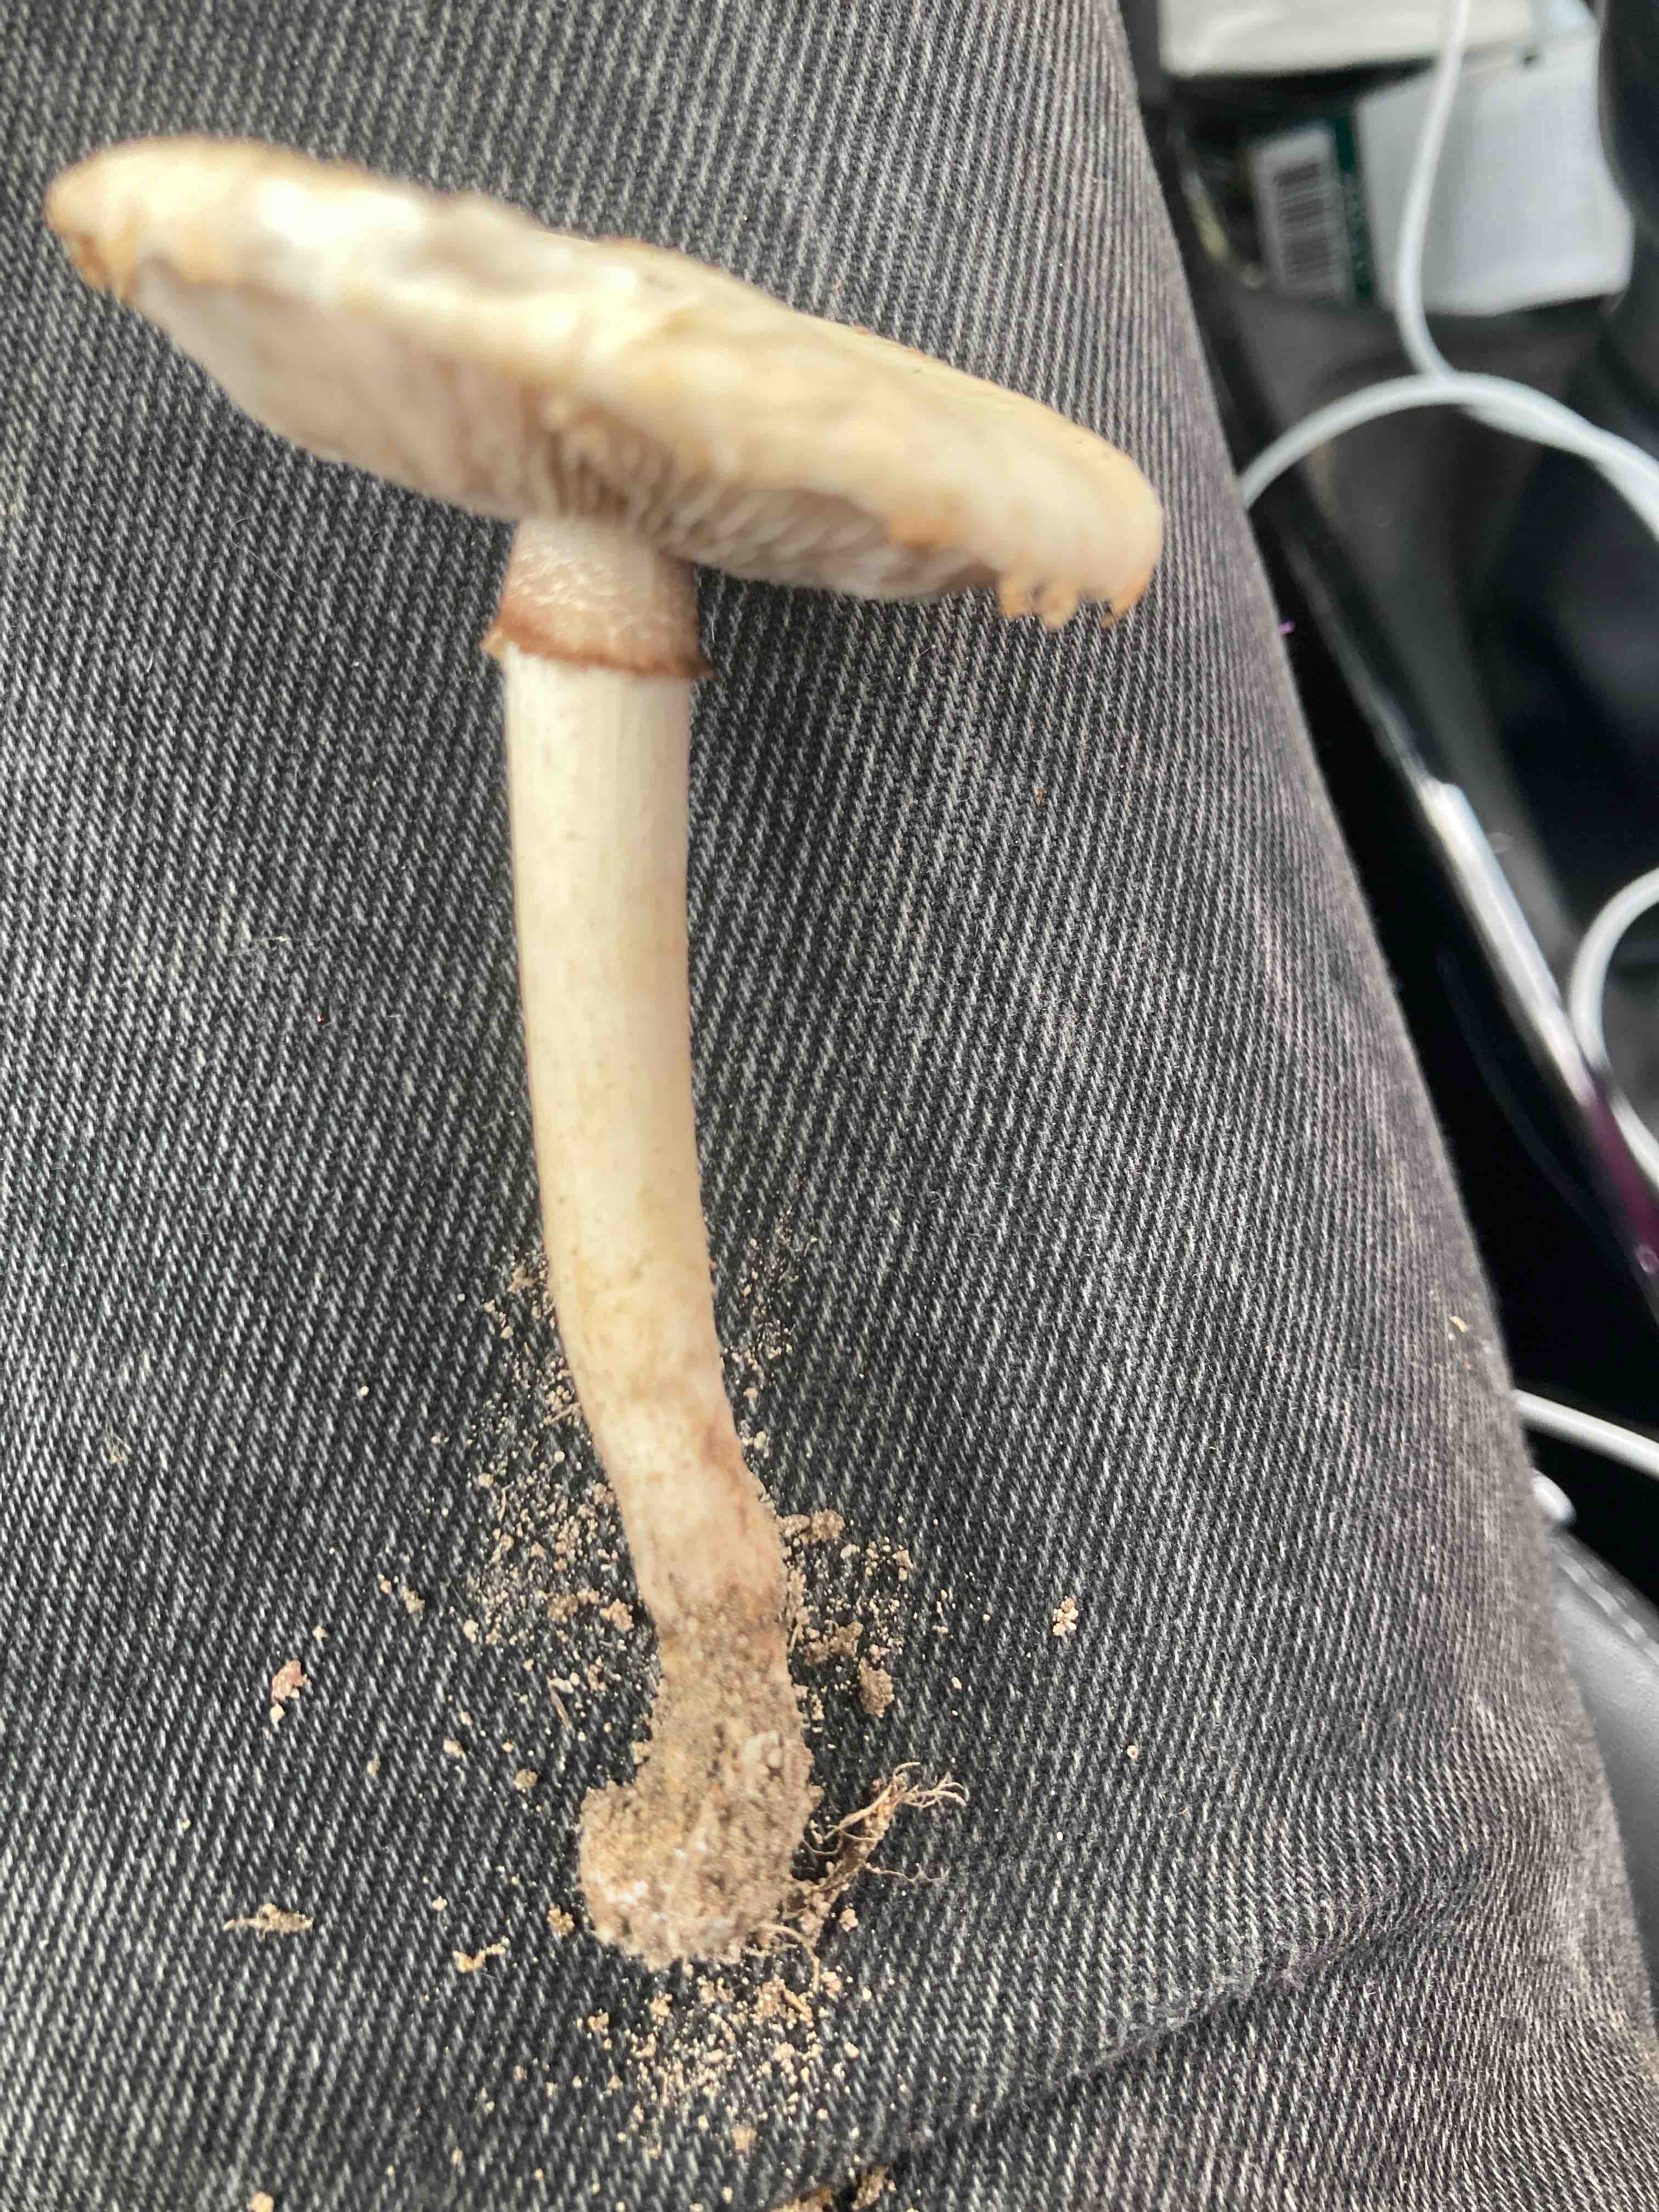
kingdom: Fungi
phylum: Basidiomycota
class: Agaricomycetes
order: Agaricales
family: Strophariaceae
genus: Agrocybe
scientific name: Agrocybe dura
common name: fastkødet agerhat
